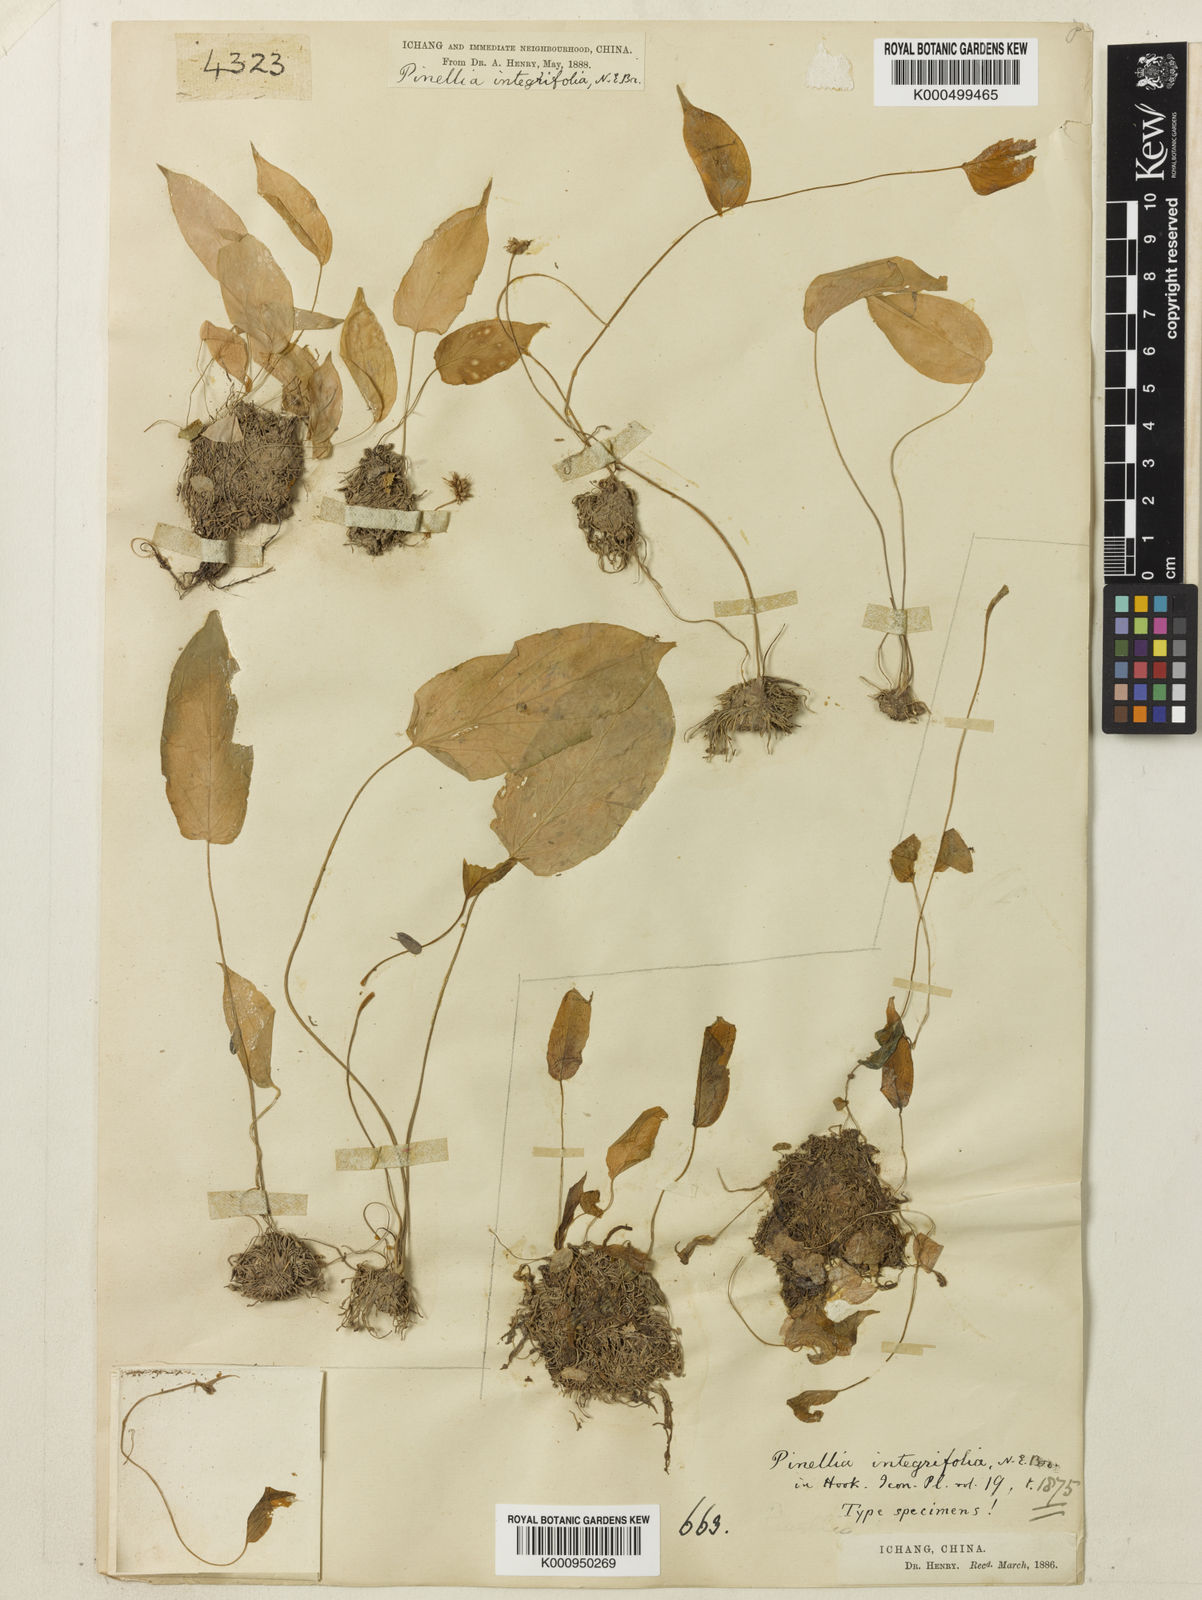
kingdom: Plantae
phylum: Tracheophyta
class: Liliopsida
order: Alismatales
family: Araceae
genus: Pinellia
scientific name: Pinellia integrifolia
